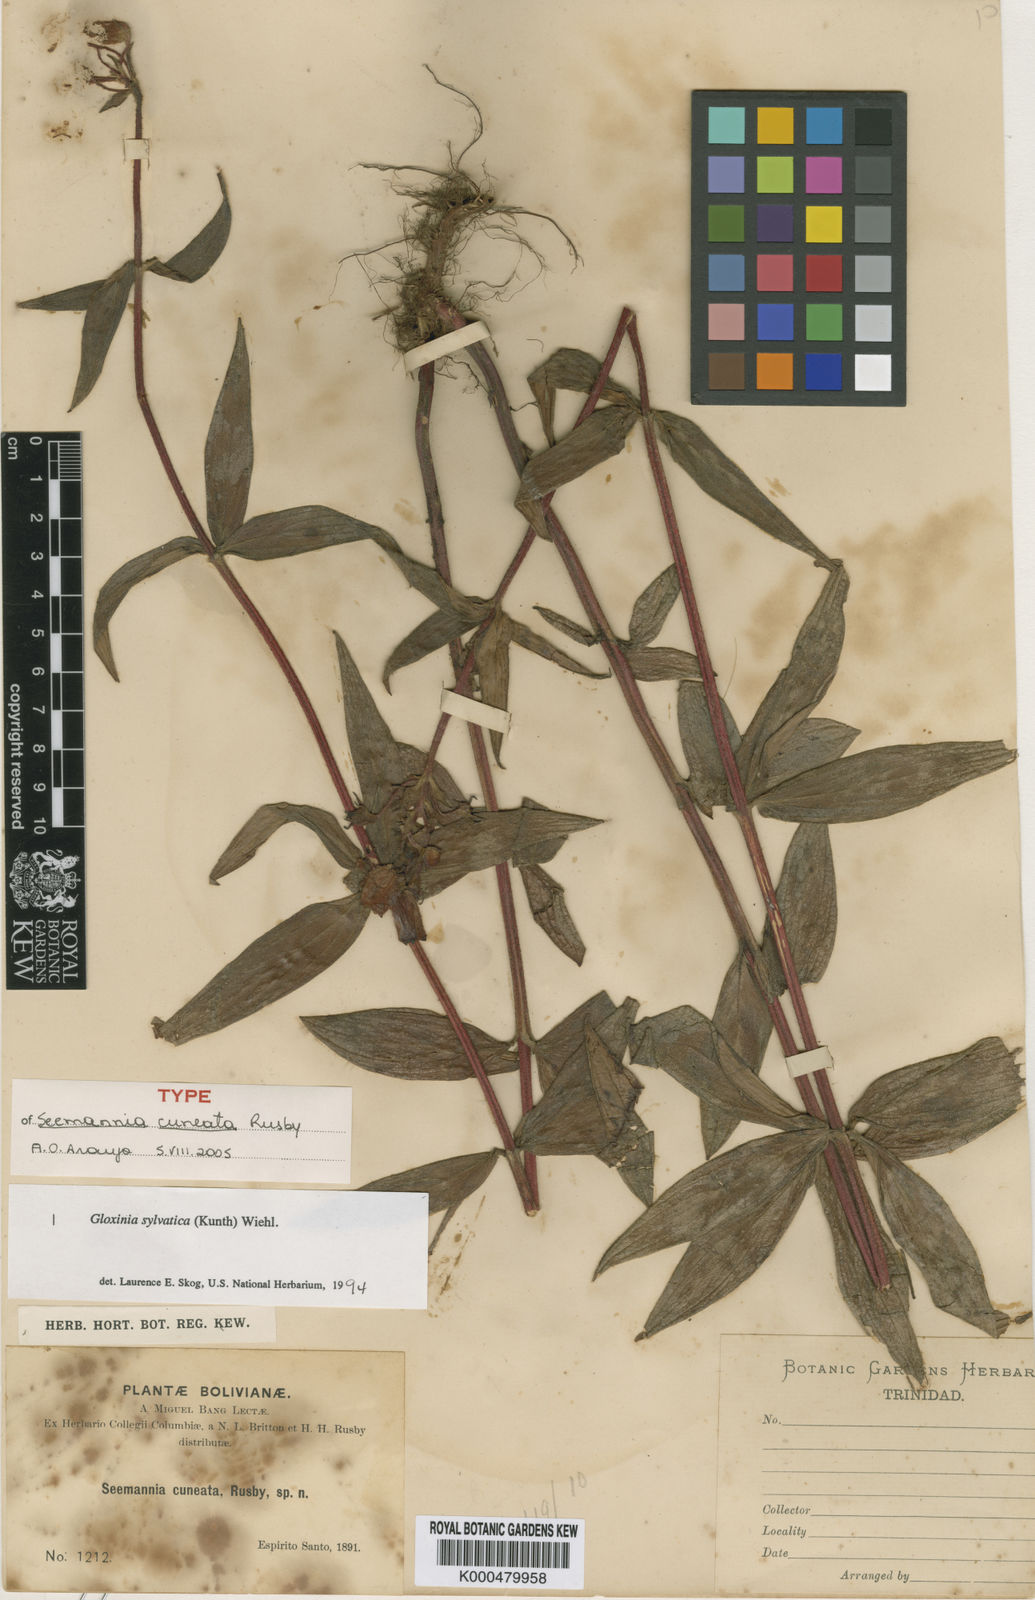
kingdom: Plantae
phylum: Tracheophyta
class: Magnoliopsida
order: Lamiales
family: Gesneriaceae
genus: Seemannia
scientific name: Seemannia sylvatica
